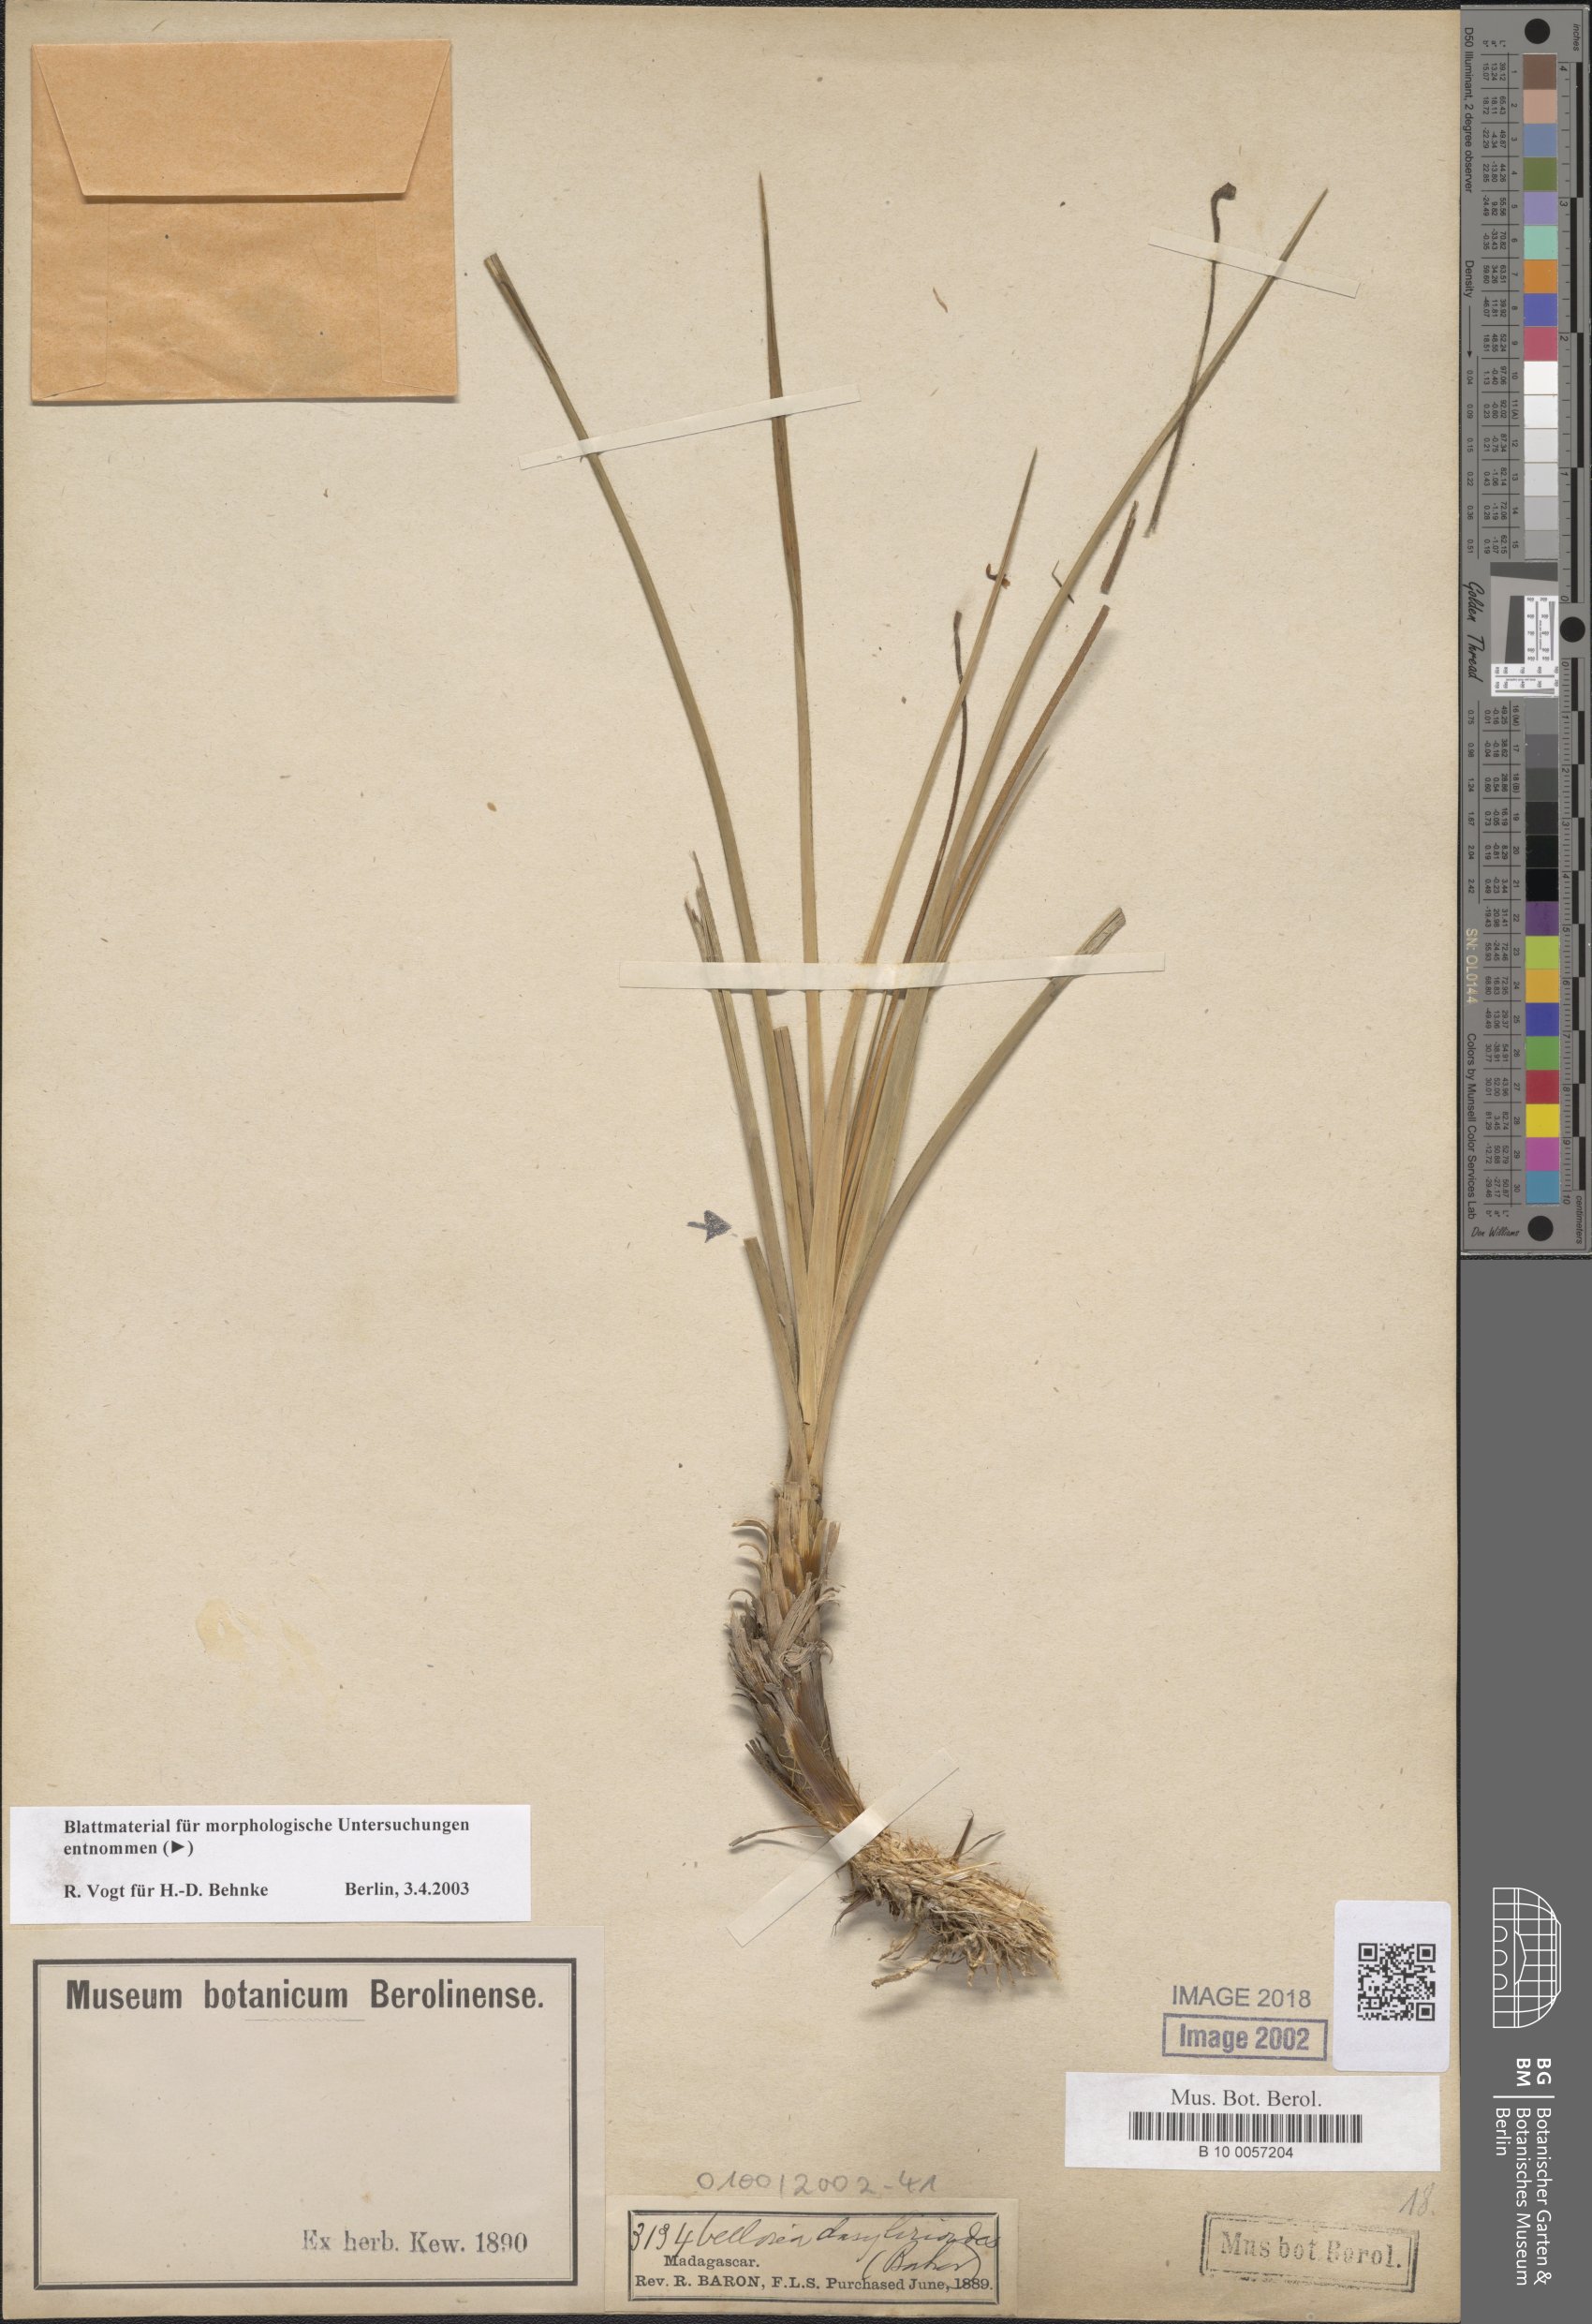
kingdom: Plantae
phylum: Tracheophyta
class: Liliopsida
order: Pandanales
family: Velloziaceae
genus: Xerophyta
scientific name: Xerophyta dasylirioides
